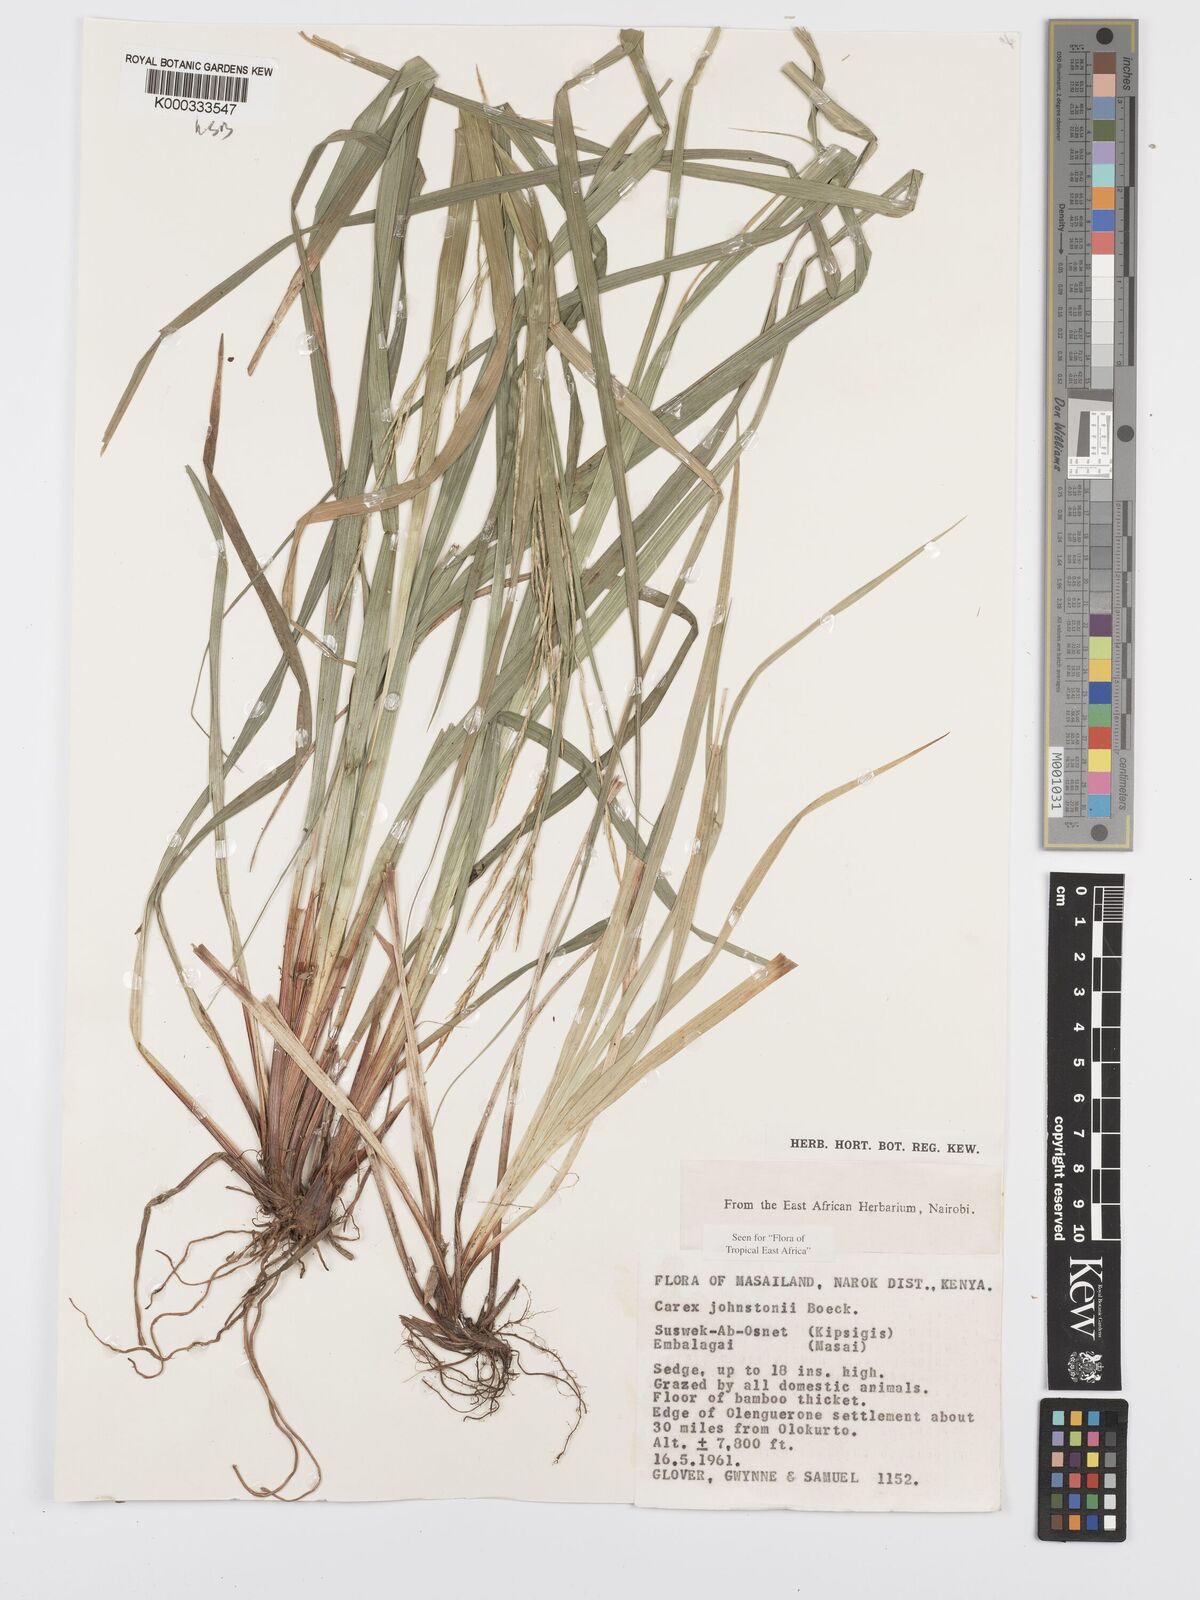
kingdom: Plantae
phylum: Tracheophyta
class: Liliopsida
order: Poales
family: Cyperaceae
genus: Carex
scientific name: Carex johnstonii
